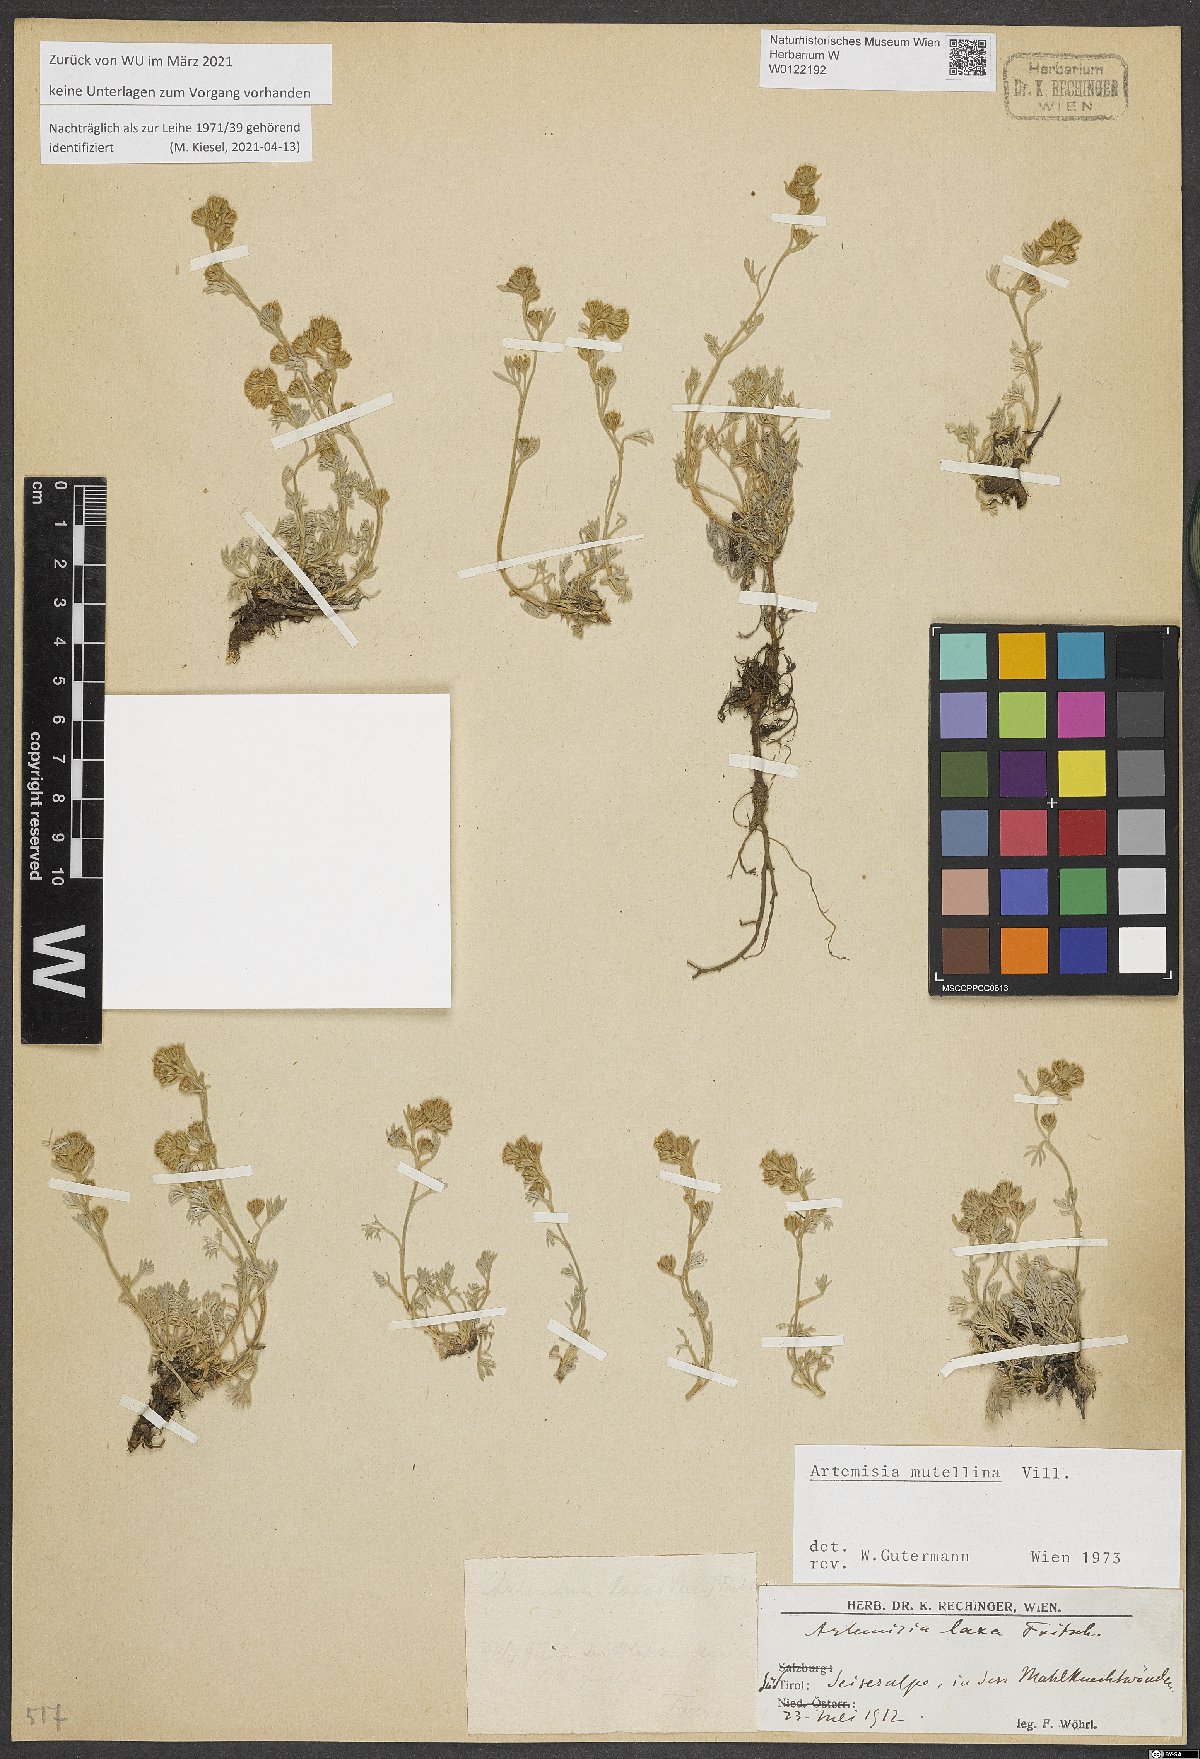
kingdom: Plantae
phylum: Tracheophyta
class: Magnoliopsida
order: Asterales
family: Asteraceae
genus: Artemisia
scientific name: Artemisia mutellina
